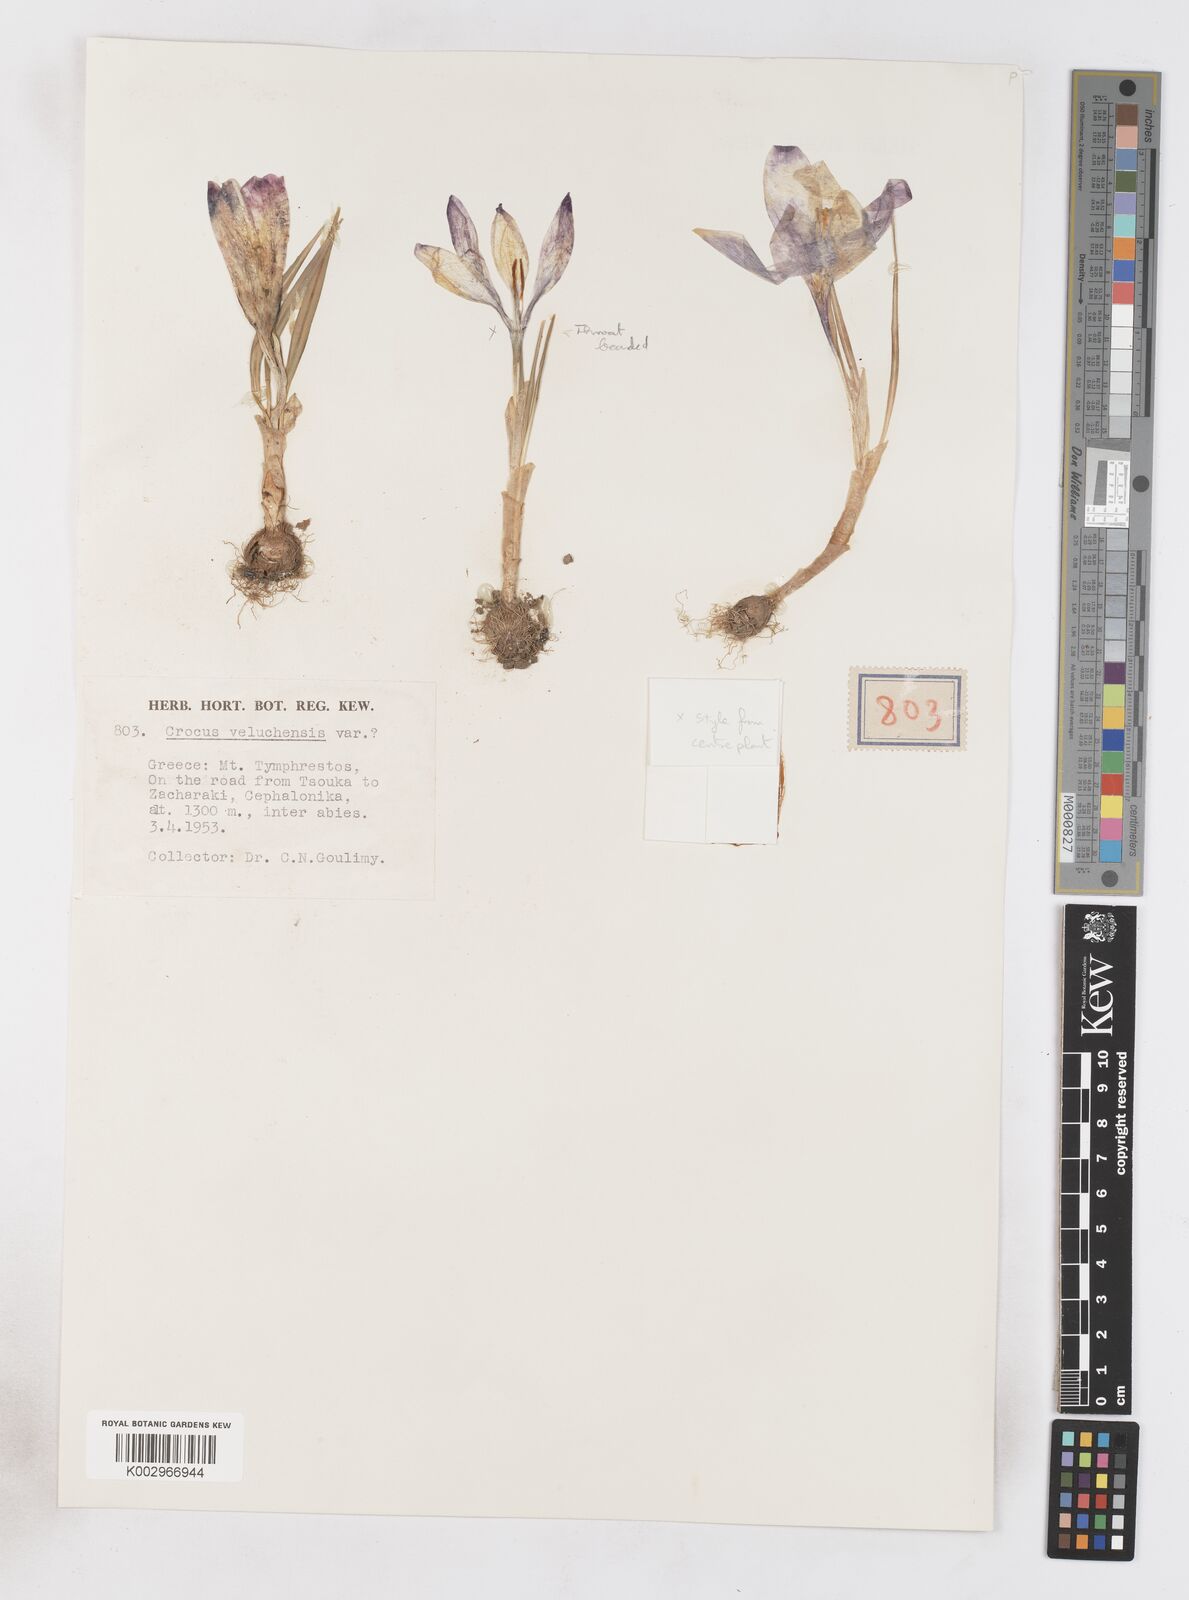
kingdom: Plantae
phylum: Tracheophyta
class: Liliopsida
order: Asparagales
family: Iridaceae
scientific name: Iridaceae
